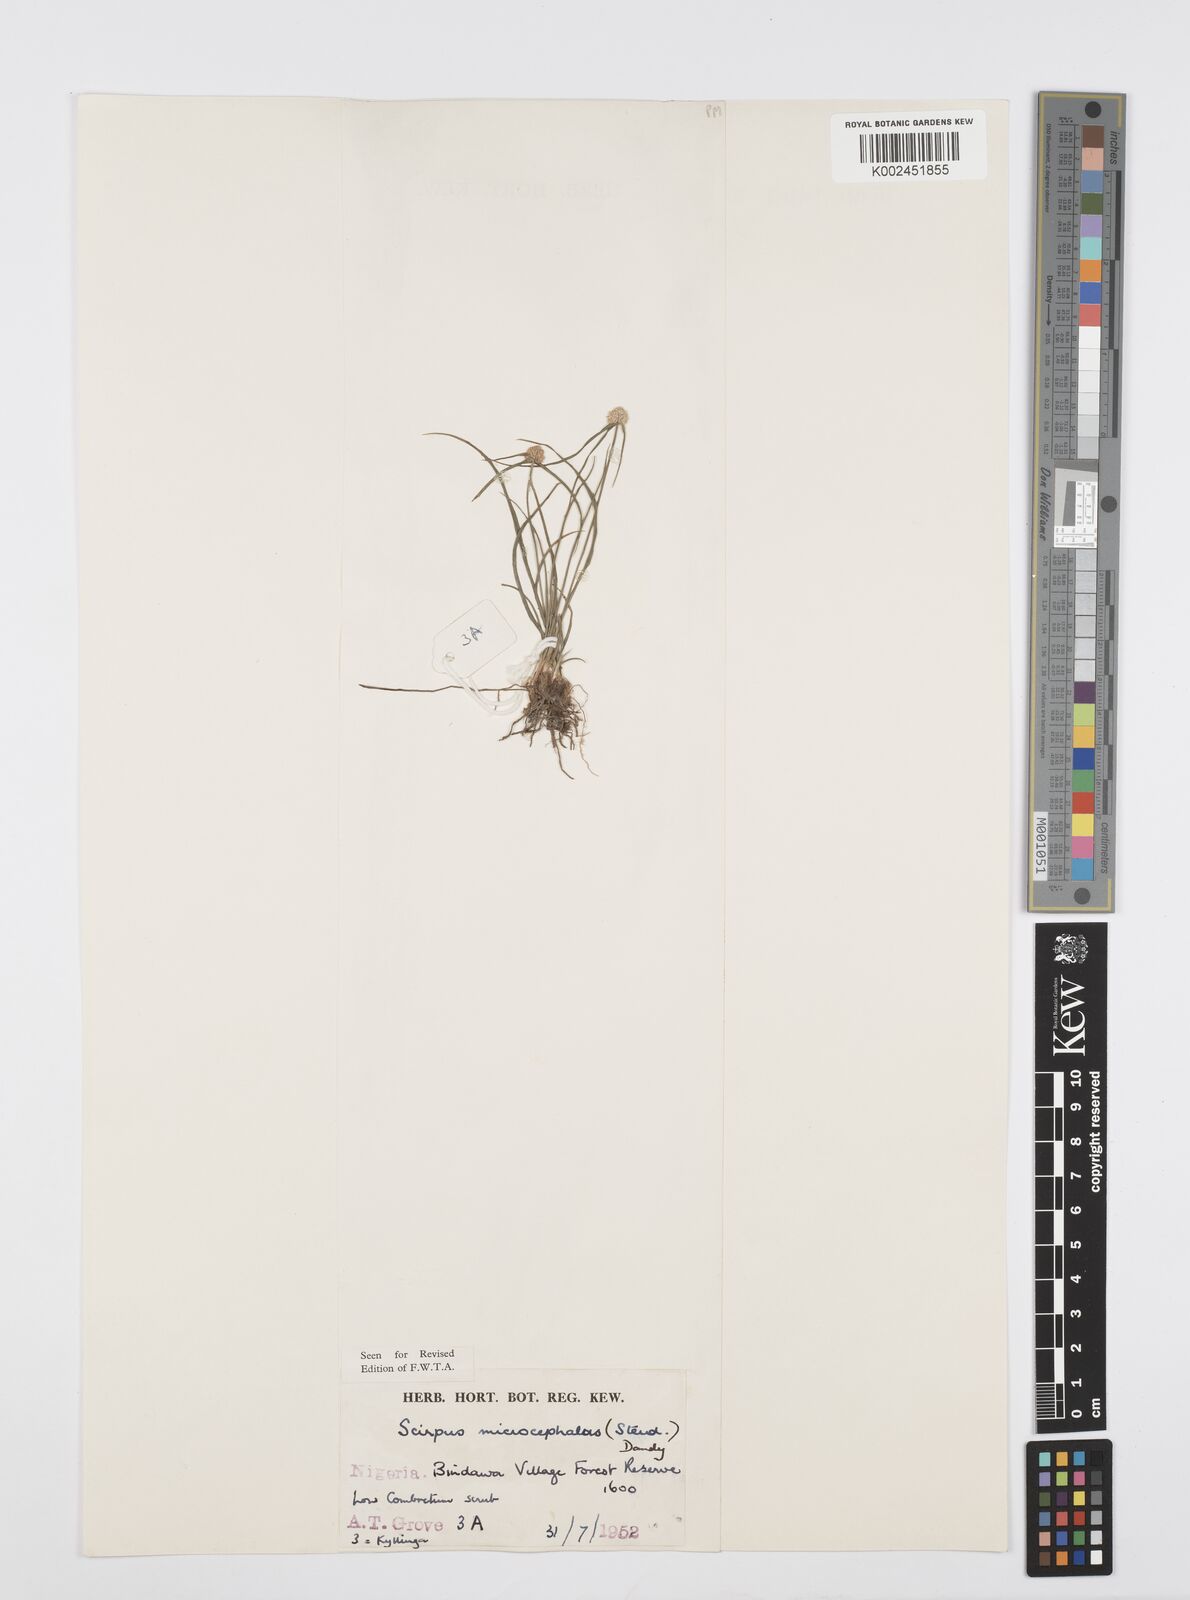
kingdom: Plantae
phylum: Tracheophyta
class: Liliopsida
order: Poales
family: Cyperaceae
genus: Cyperus
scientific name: Cyperus microcephalus
